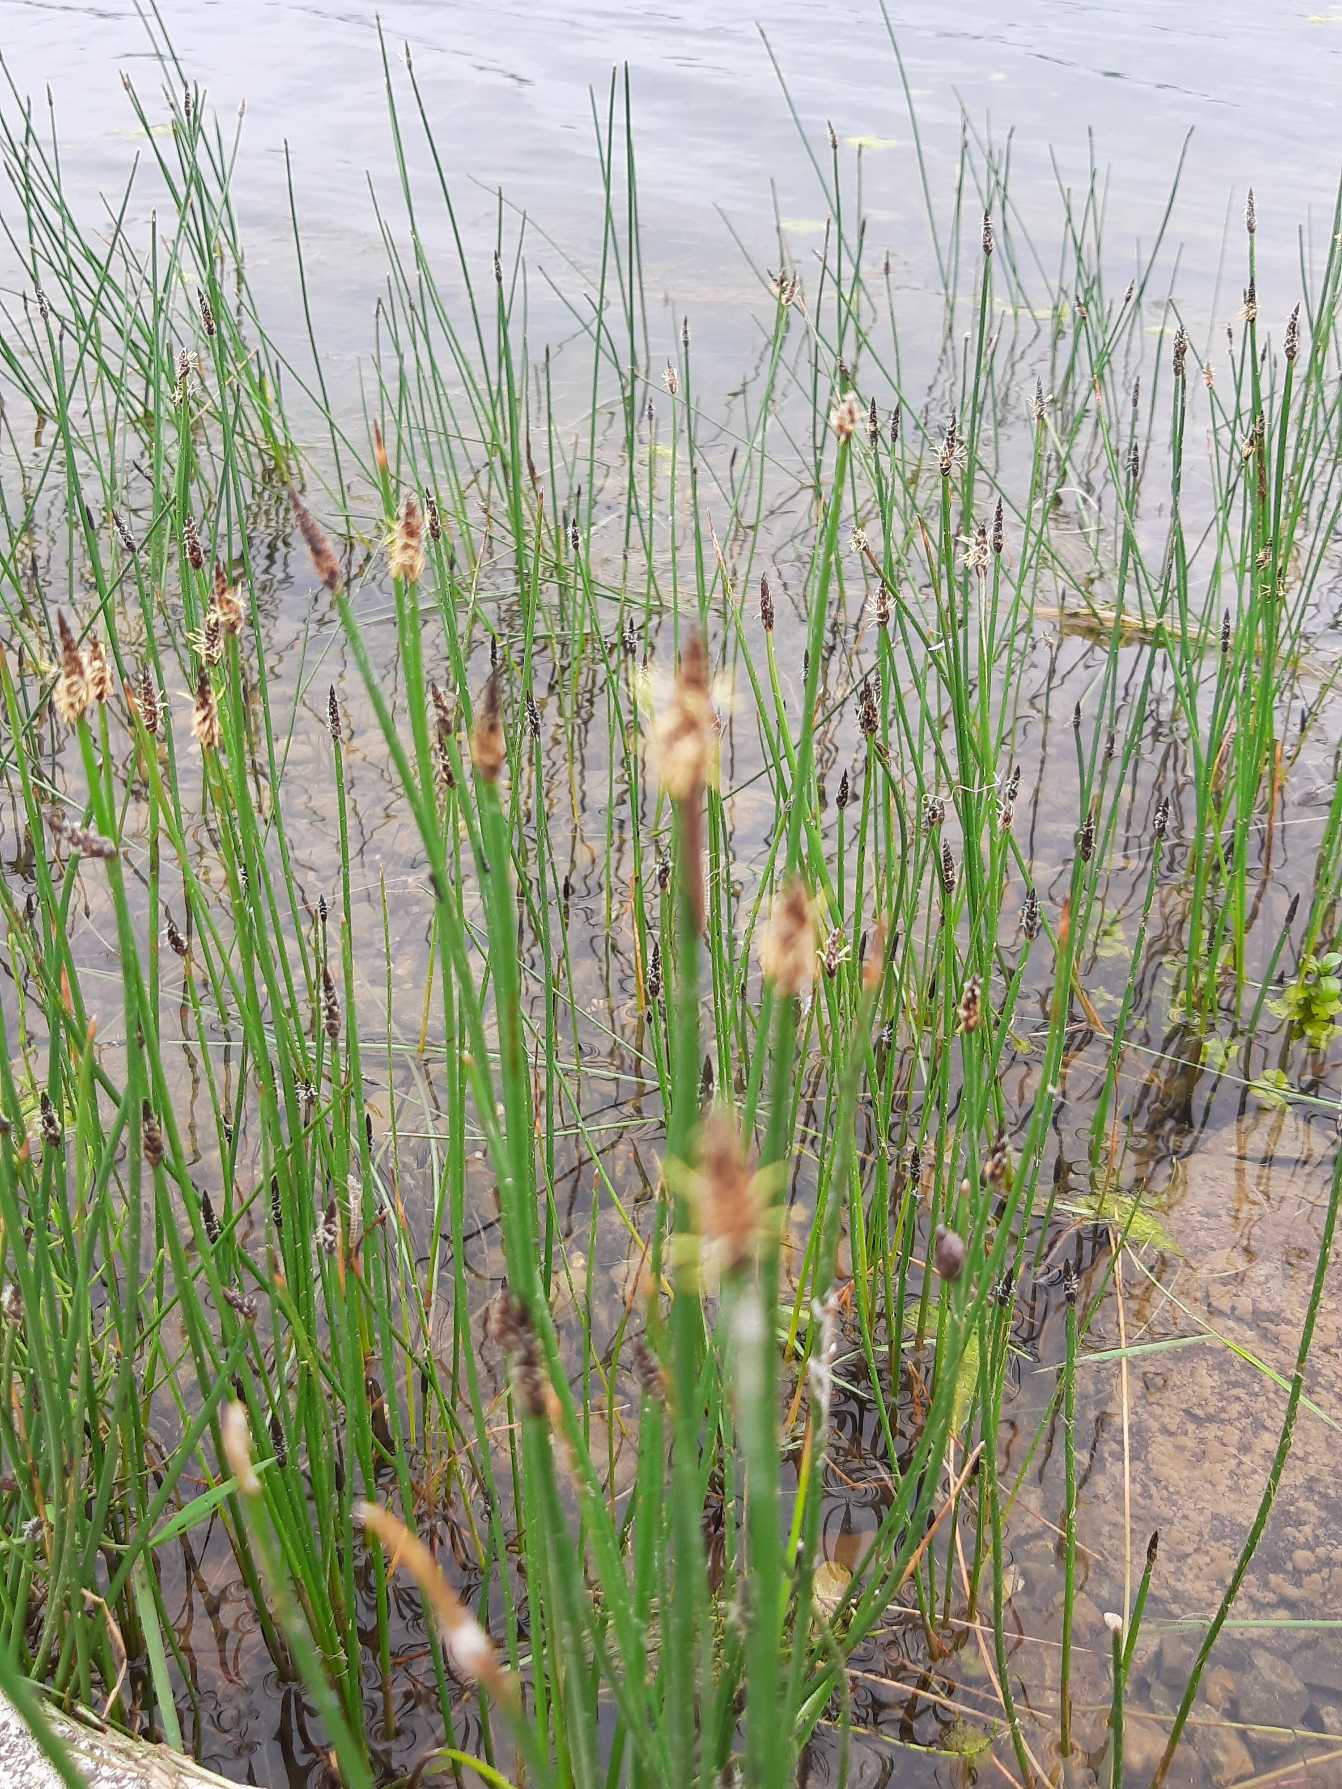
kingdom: Plantae
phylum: Tracheophyta
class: Liliopsida
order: Poales
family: Cyperaceae
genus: Eleocharis
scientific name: Eleocharis palustris
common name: Almindelig sumpstrå
